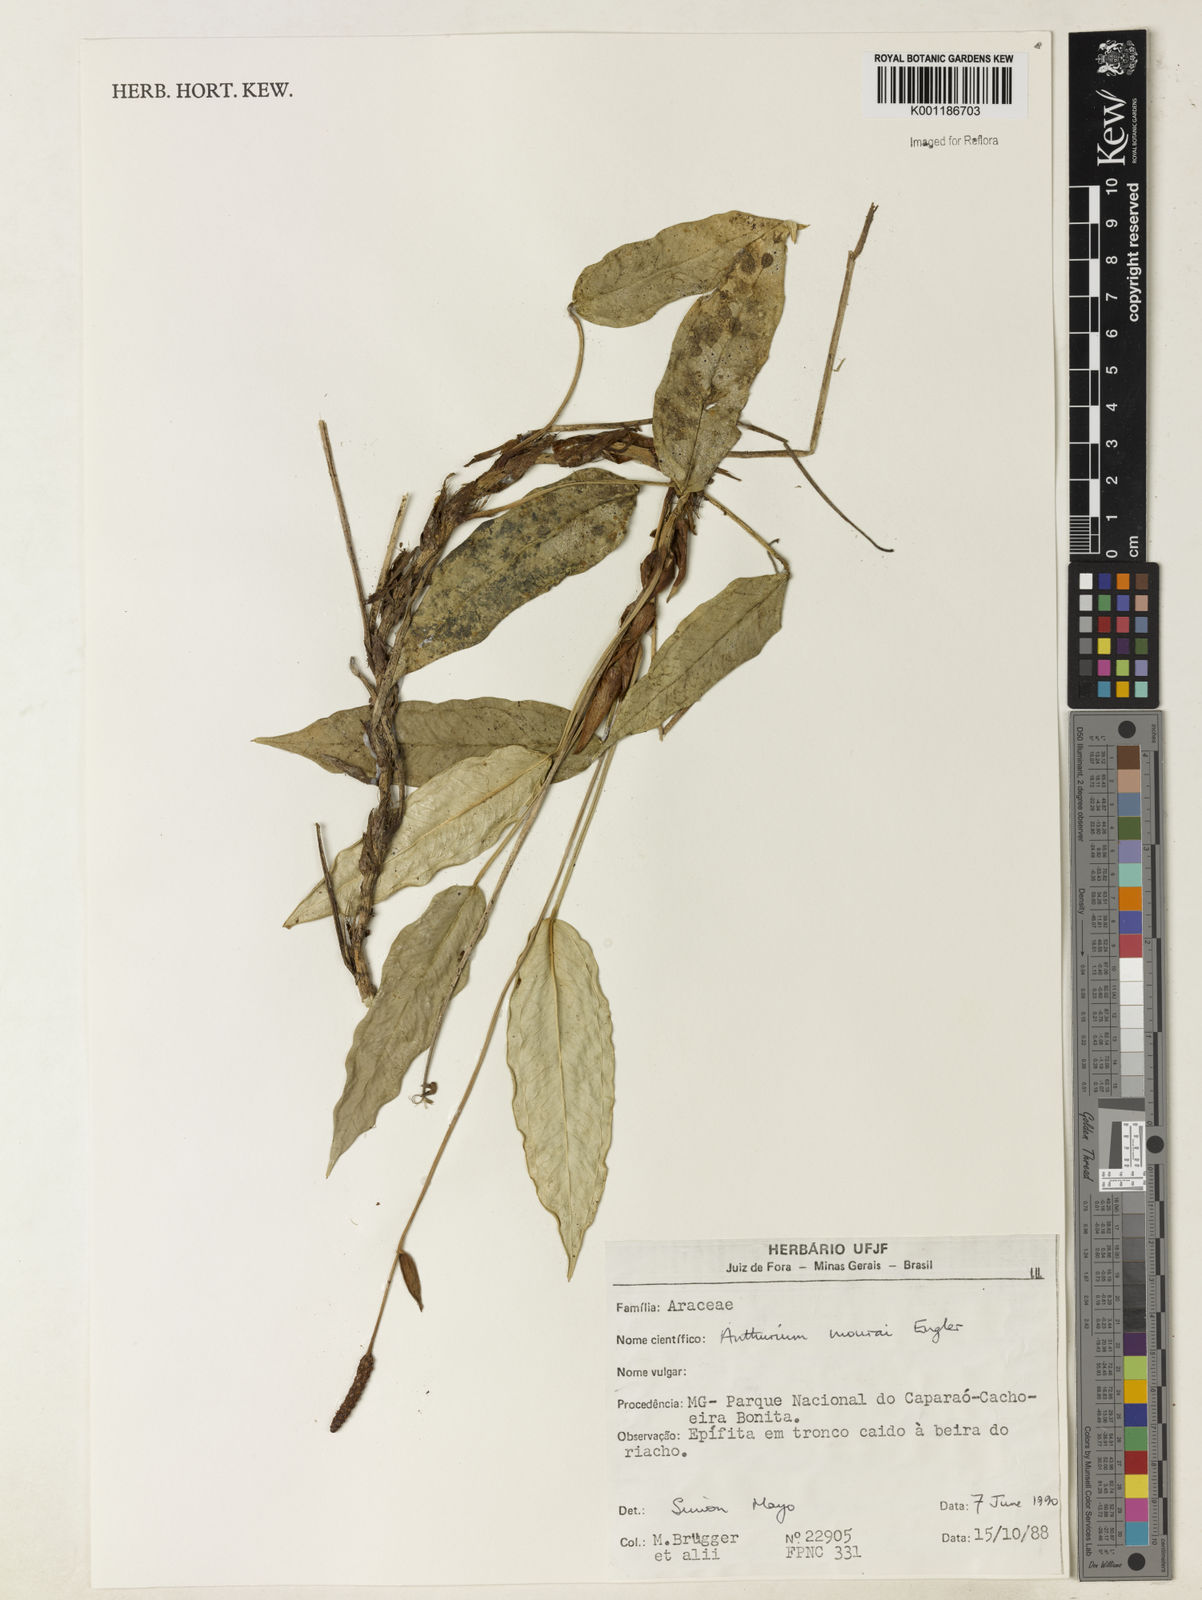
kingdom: Plantae
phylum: Tracheophyta
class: Liliopsida
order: Alismatales
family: Araceae
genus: Anthurium
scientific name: Anthurium mourae
